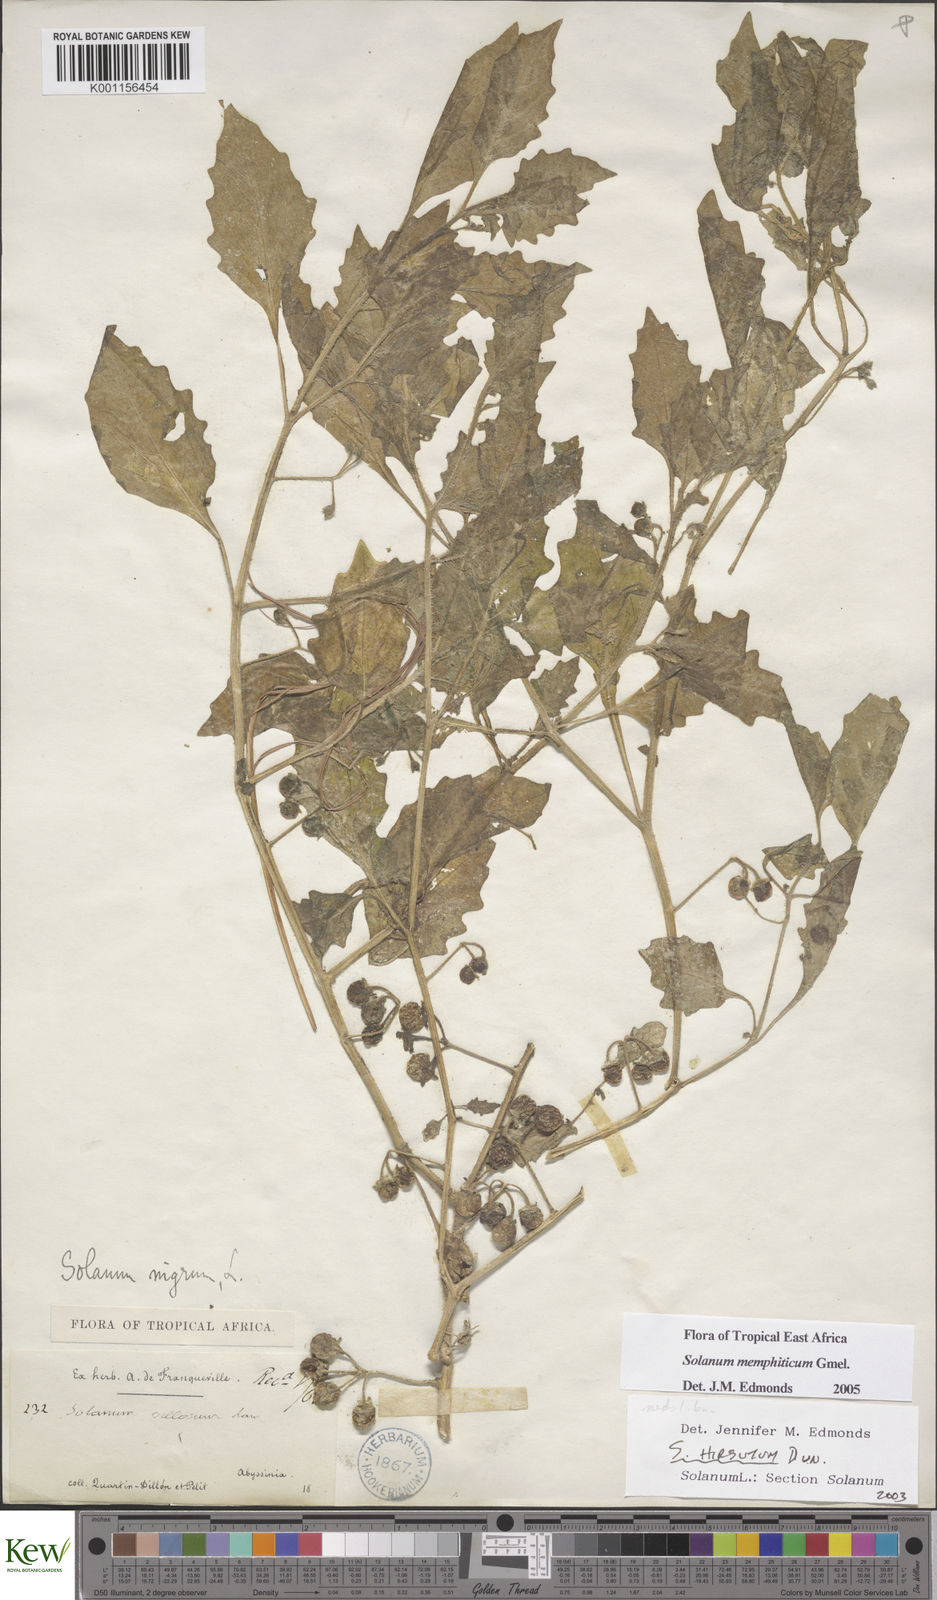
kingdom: Plantae
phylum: Tracheophyta
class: Magnoliopsida
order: Solanales
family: Solanaceae
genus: Solanum
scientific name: Solanum memphiticum
